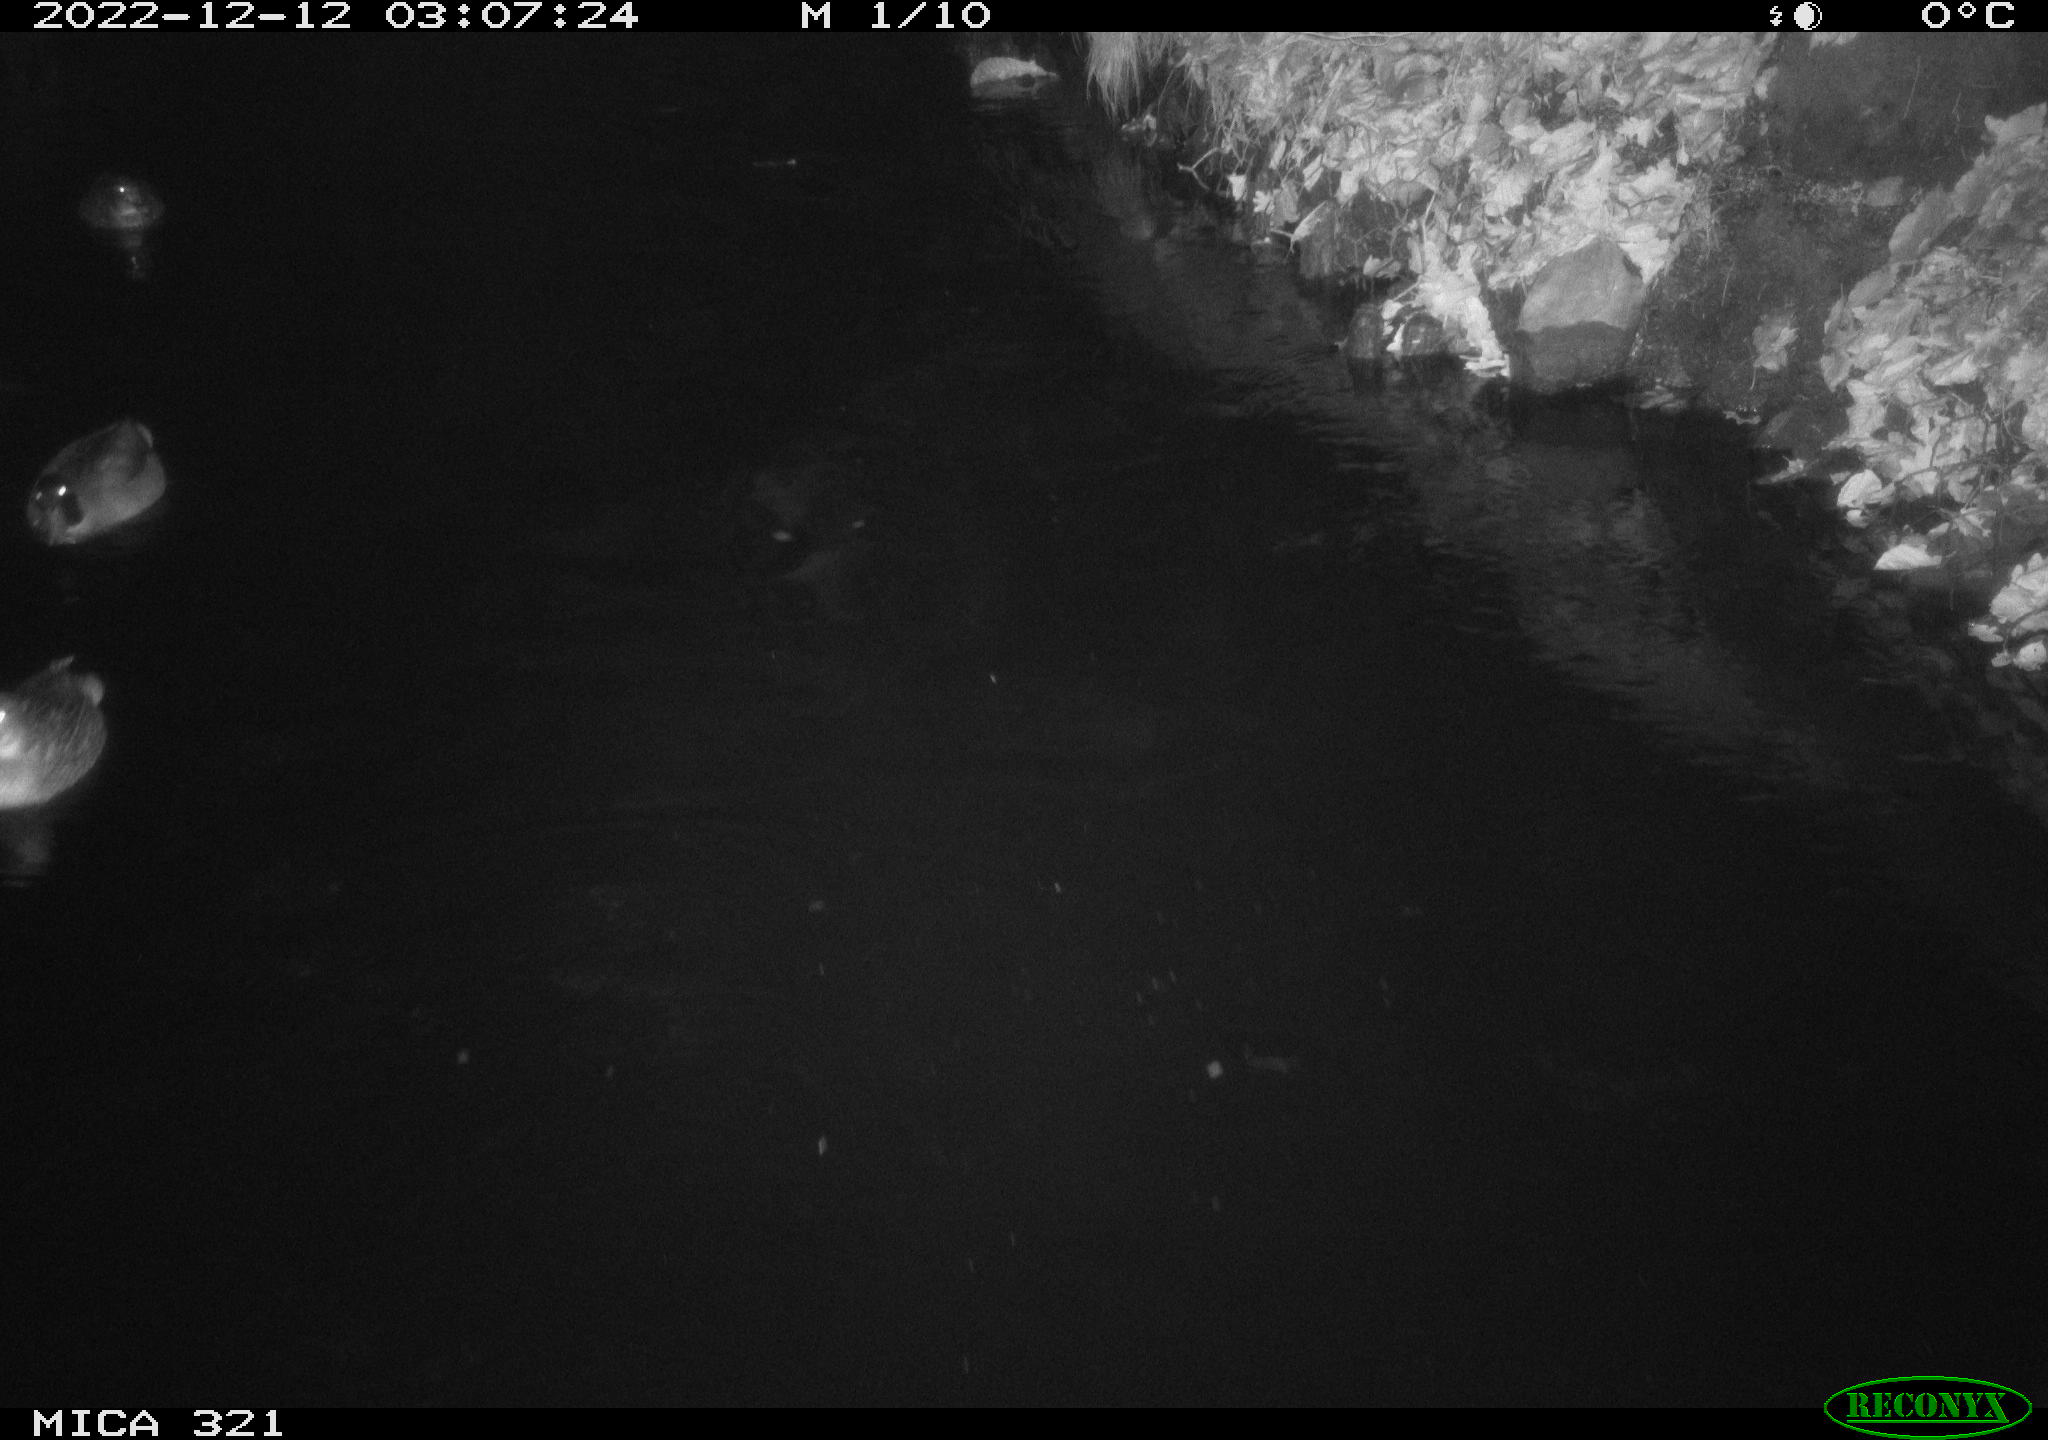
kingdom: Animalia
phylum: Chordata
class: Aves
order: Anseriformes
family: Anatidae
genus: Anas
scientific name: Anas
